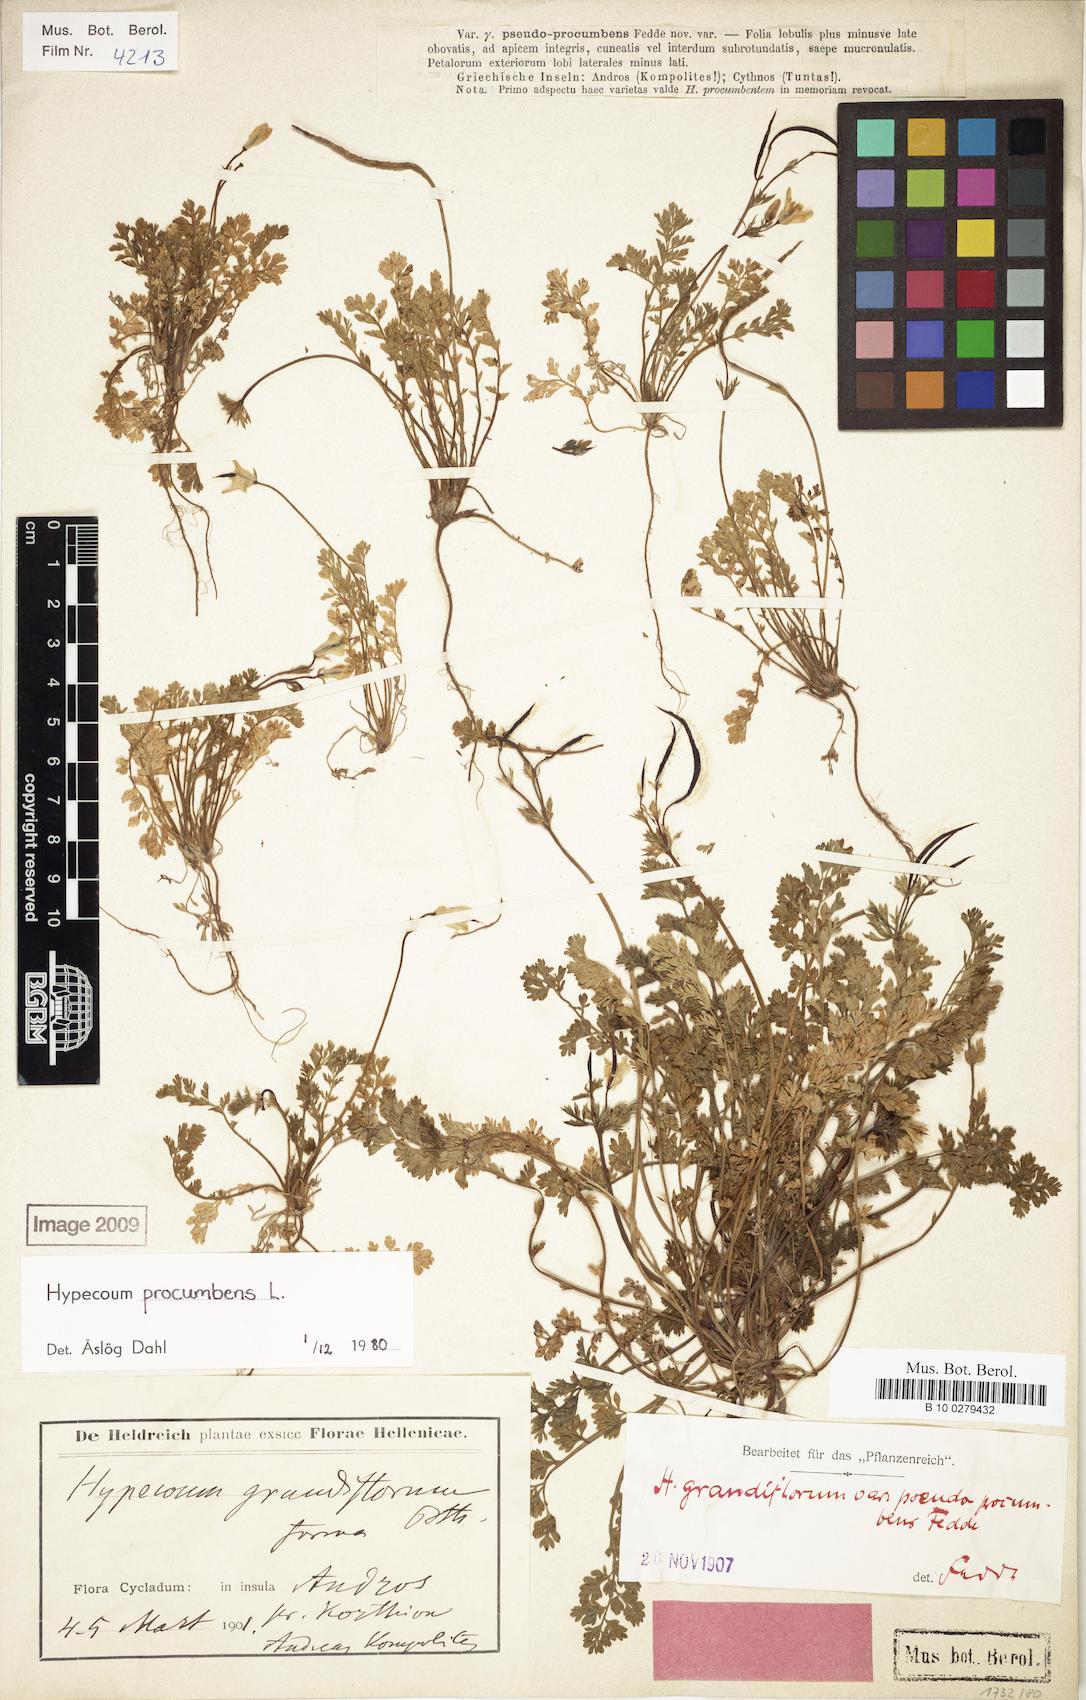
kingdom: Plantae
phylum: Tracheophyta
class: Magnoliopsida
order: Ranunculales
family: Papaveraceae
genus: Hypecoum
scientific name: Hypecoum procumbens
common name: Procumbent hypecoum
